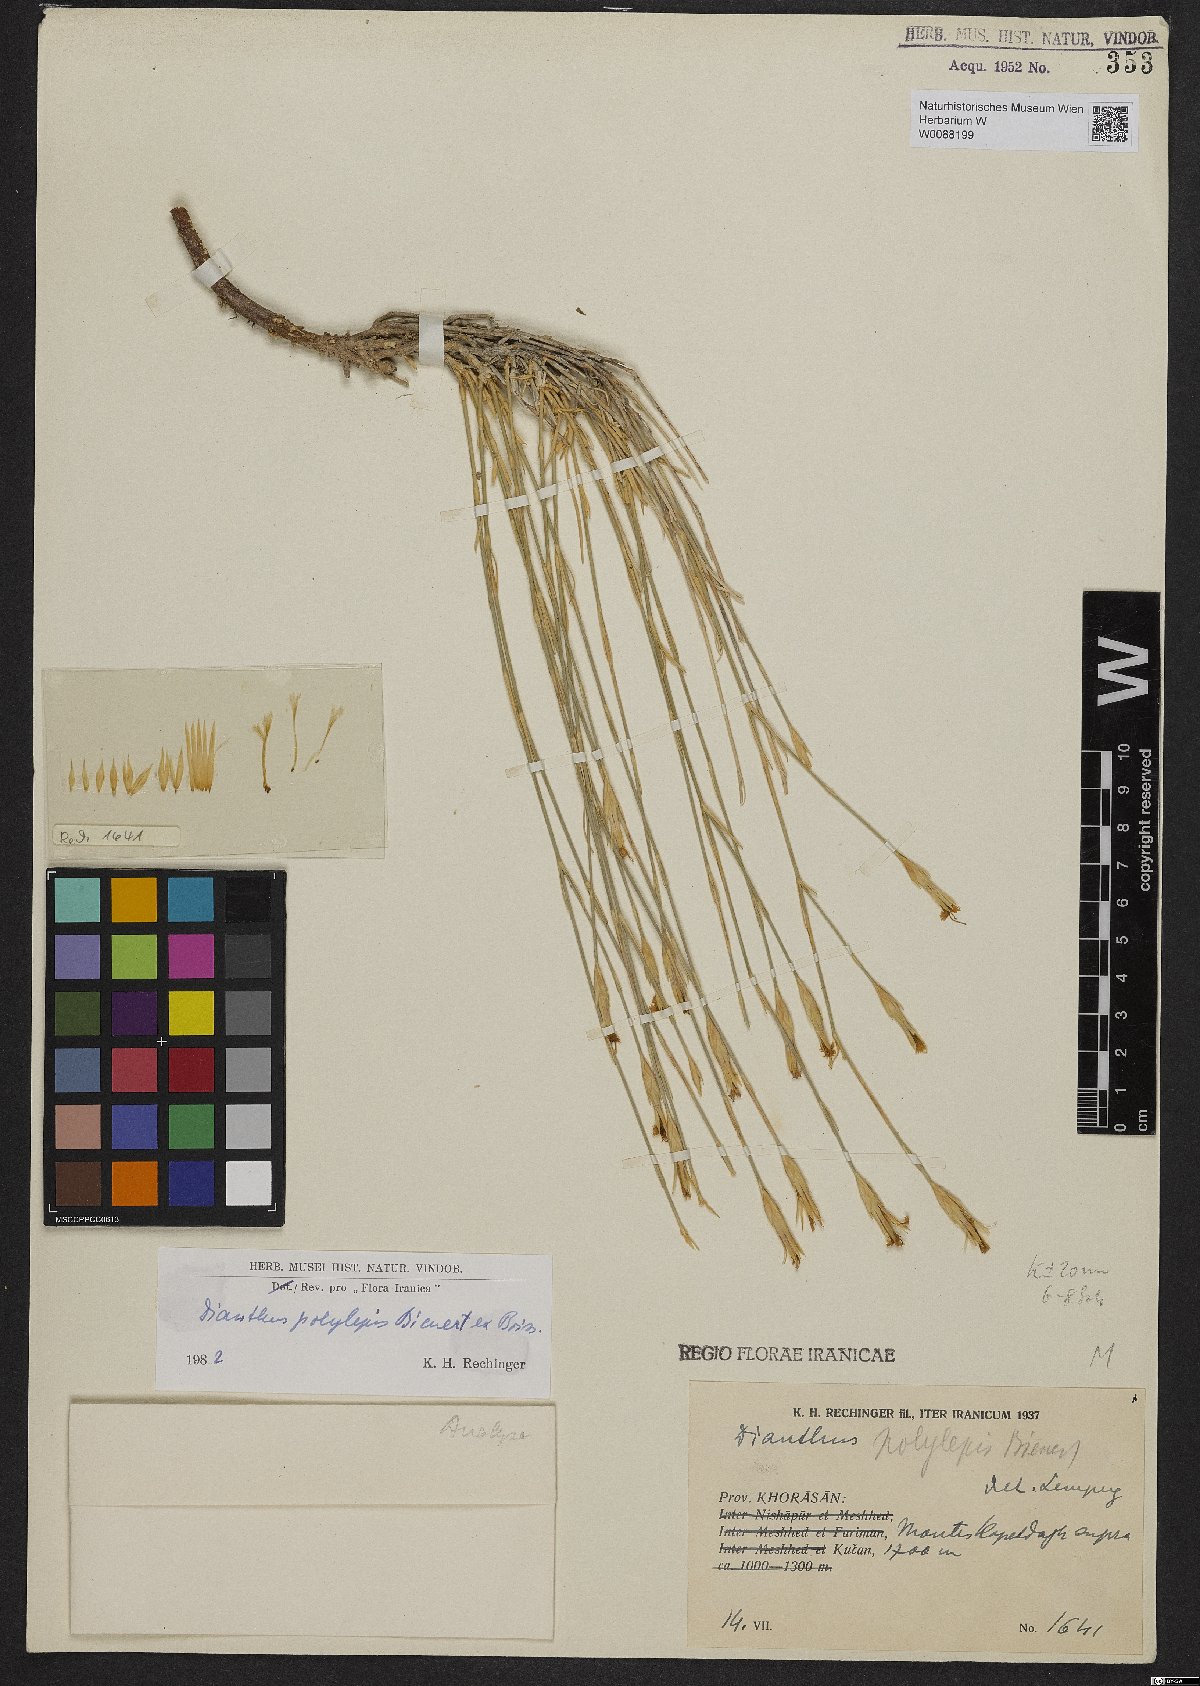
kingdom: Plantae
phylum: Tracheophyta
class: Magnoliopsida
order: Caryophyllales
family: Caryophyllaceae
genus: Dianthus
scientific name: Dianthus polylepis
